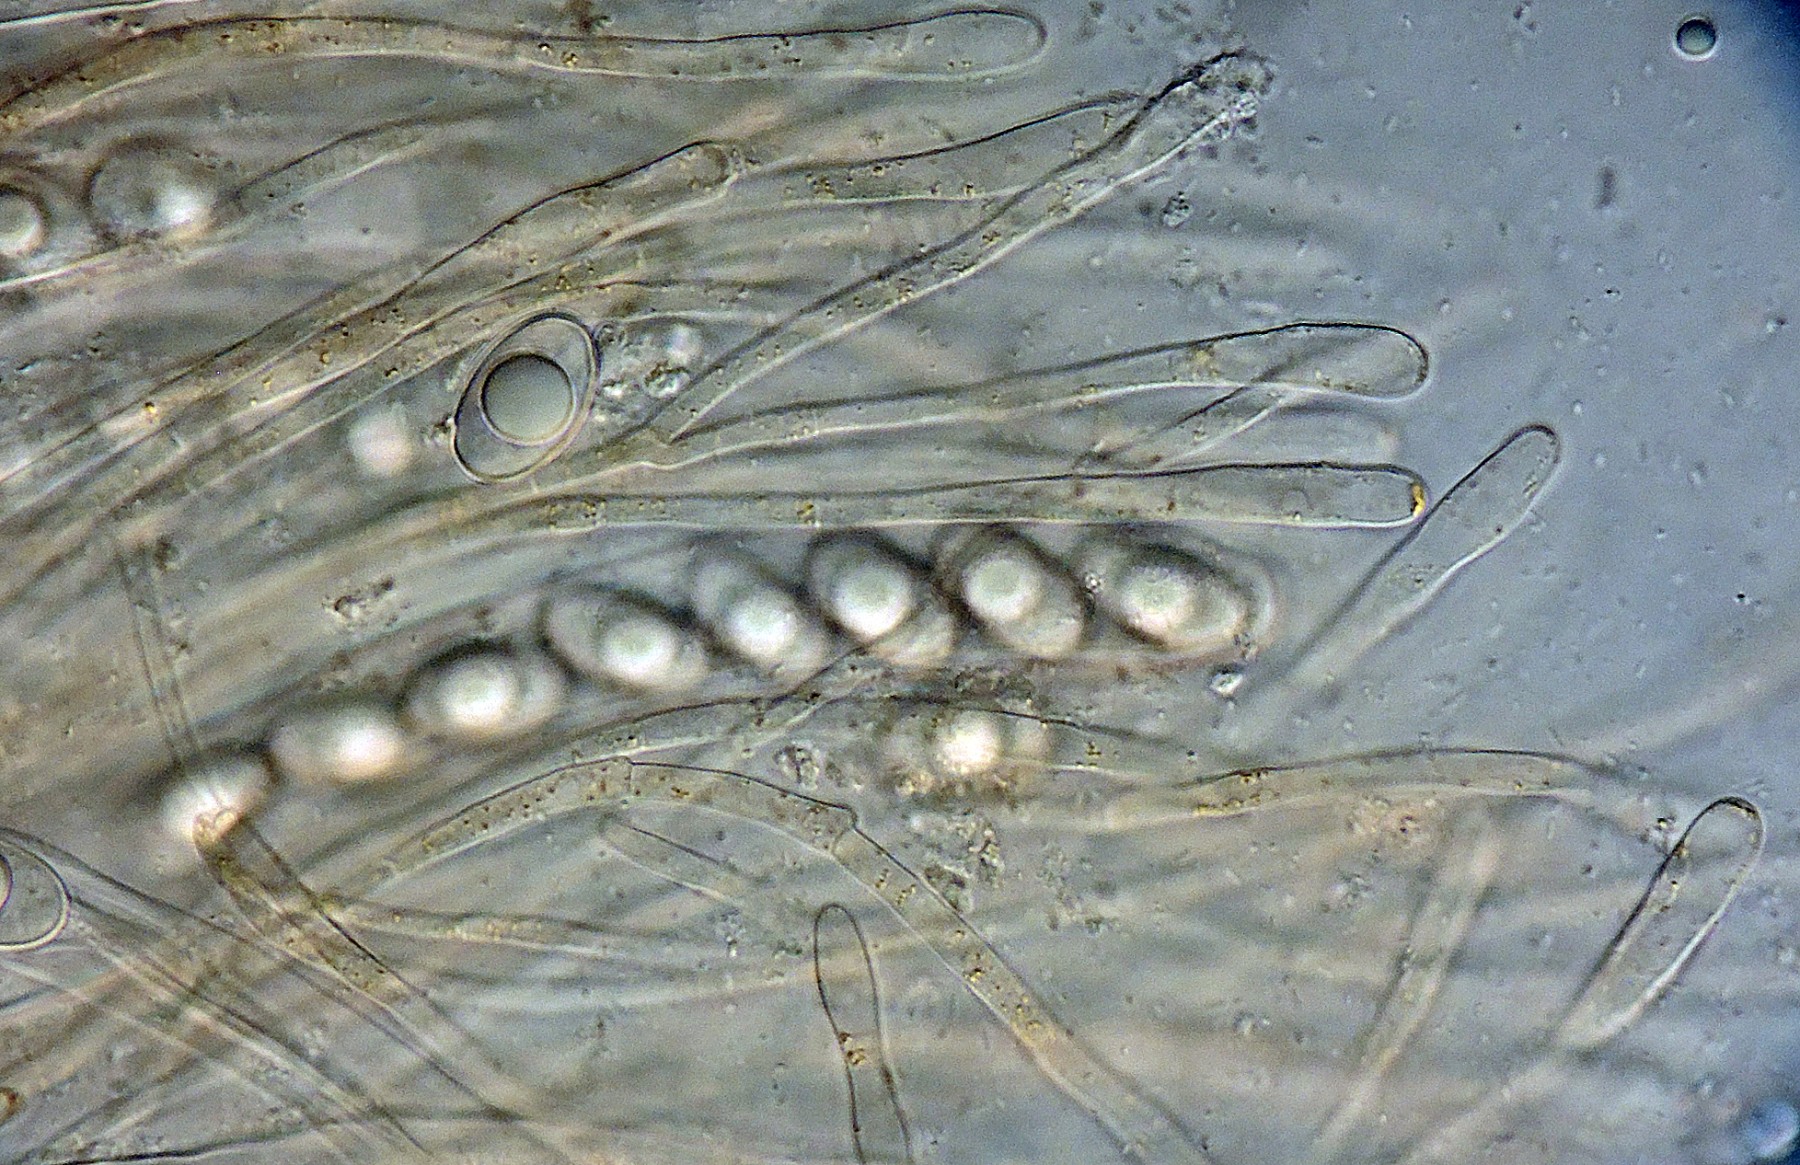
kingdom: Fungi
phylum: Ascomycota
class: Pezizomycetes
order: Pezizales
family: Pyronemataceae
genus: Neottiella
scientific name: Neottiella hetieri
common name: spidshåret mosbæger
